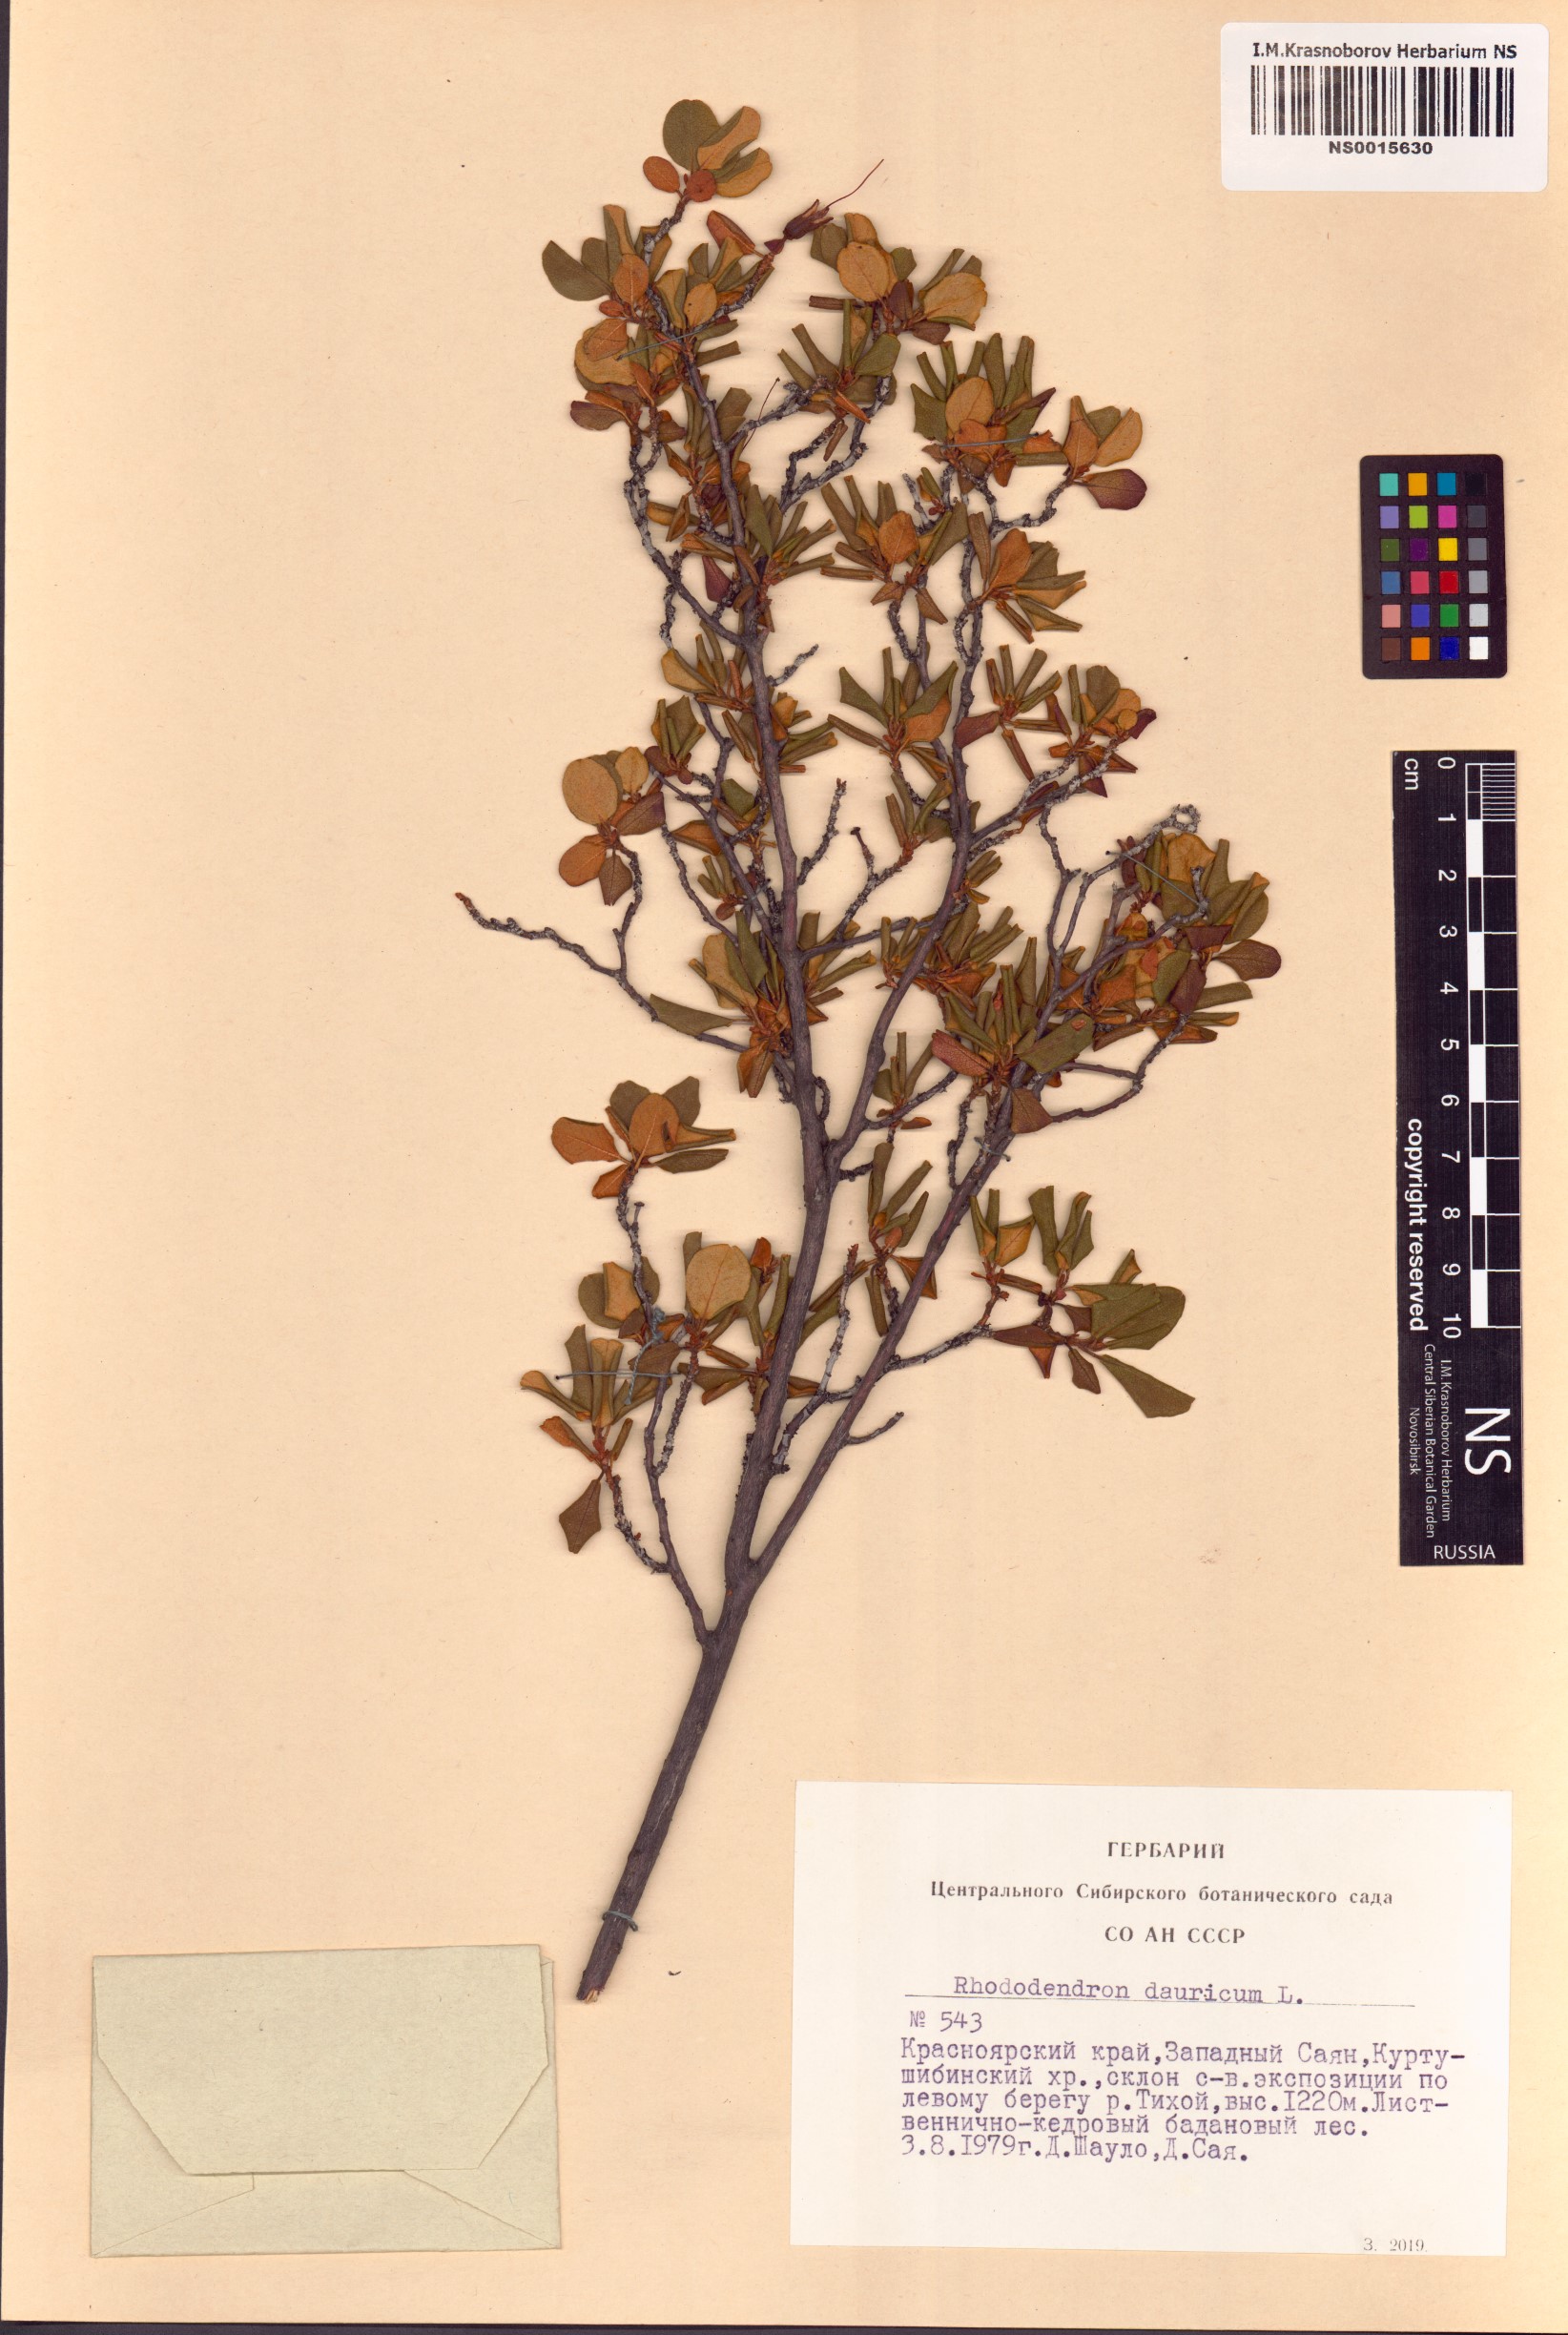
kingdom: Plantae
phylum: Tracheophyta
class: Magnoliopsida
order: Ericales
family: Ericaceae
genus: Rhododendron
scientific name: Rhododendron dauricum
